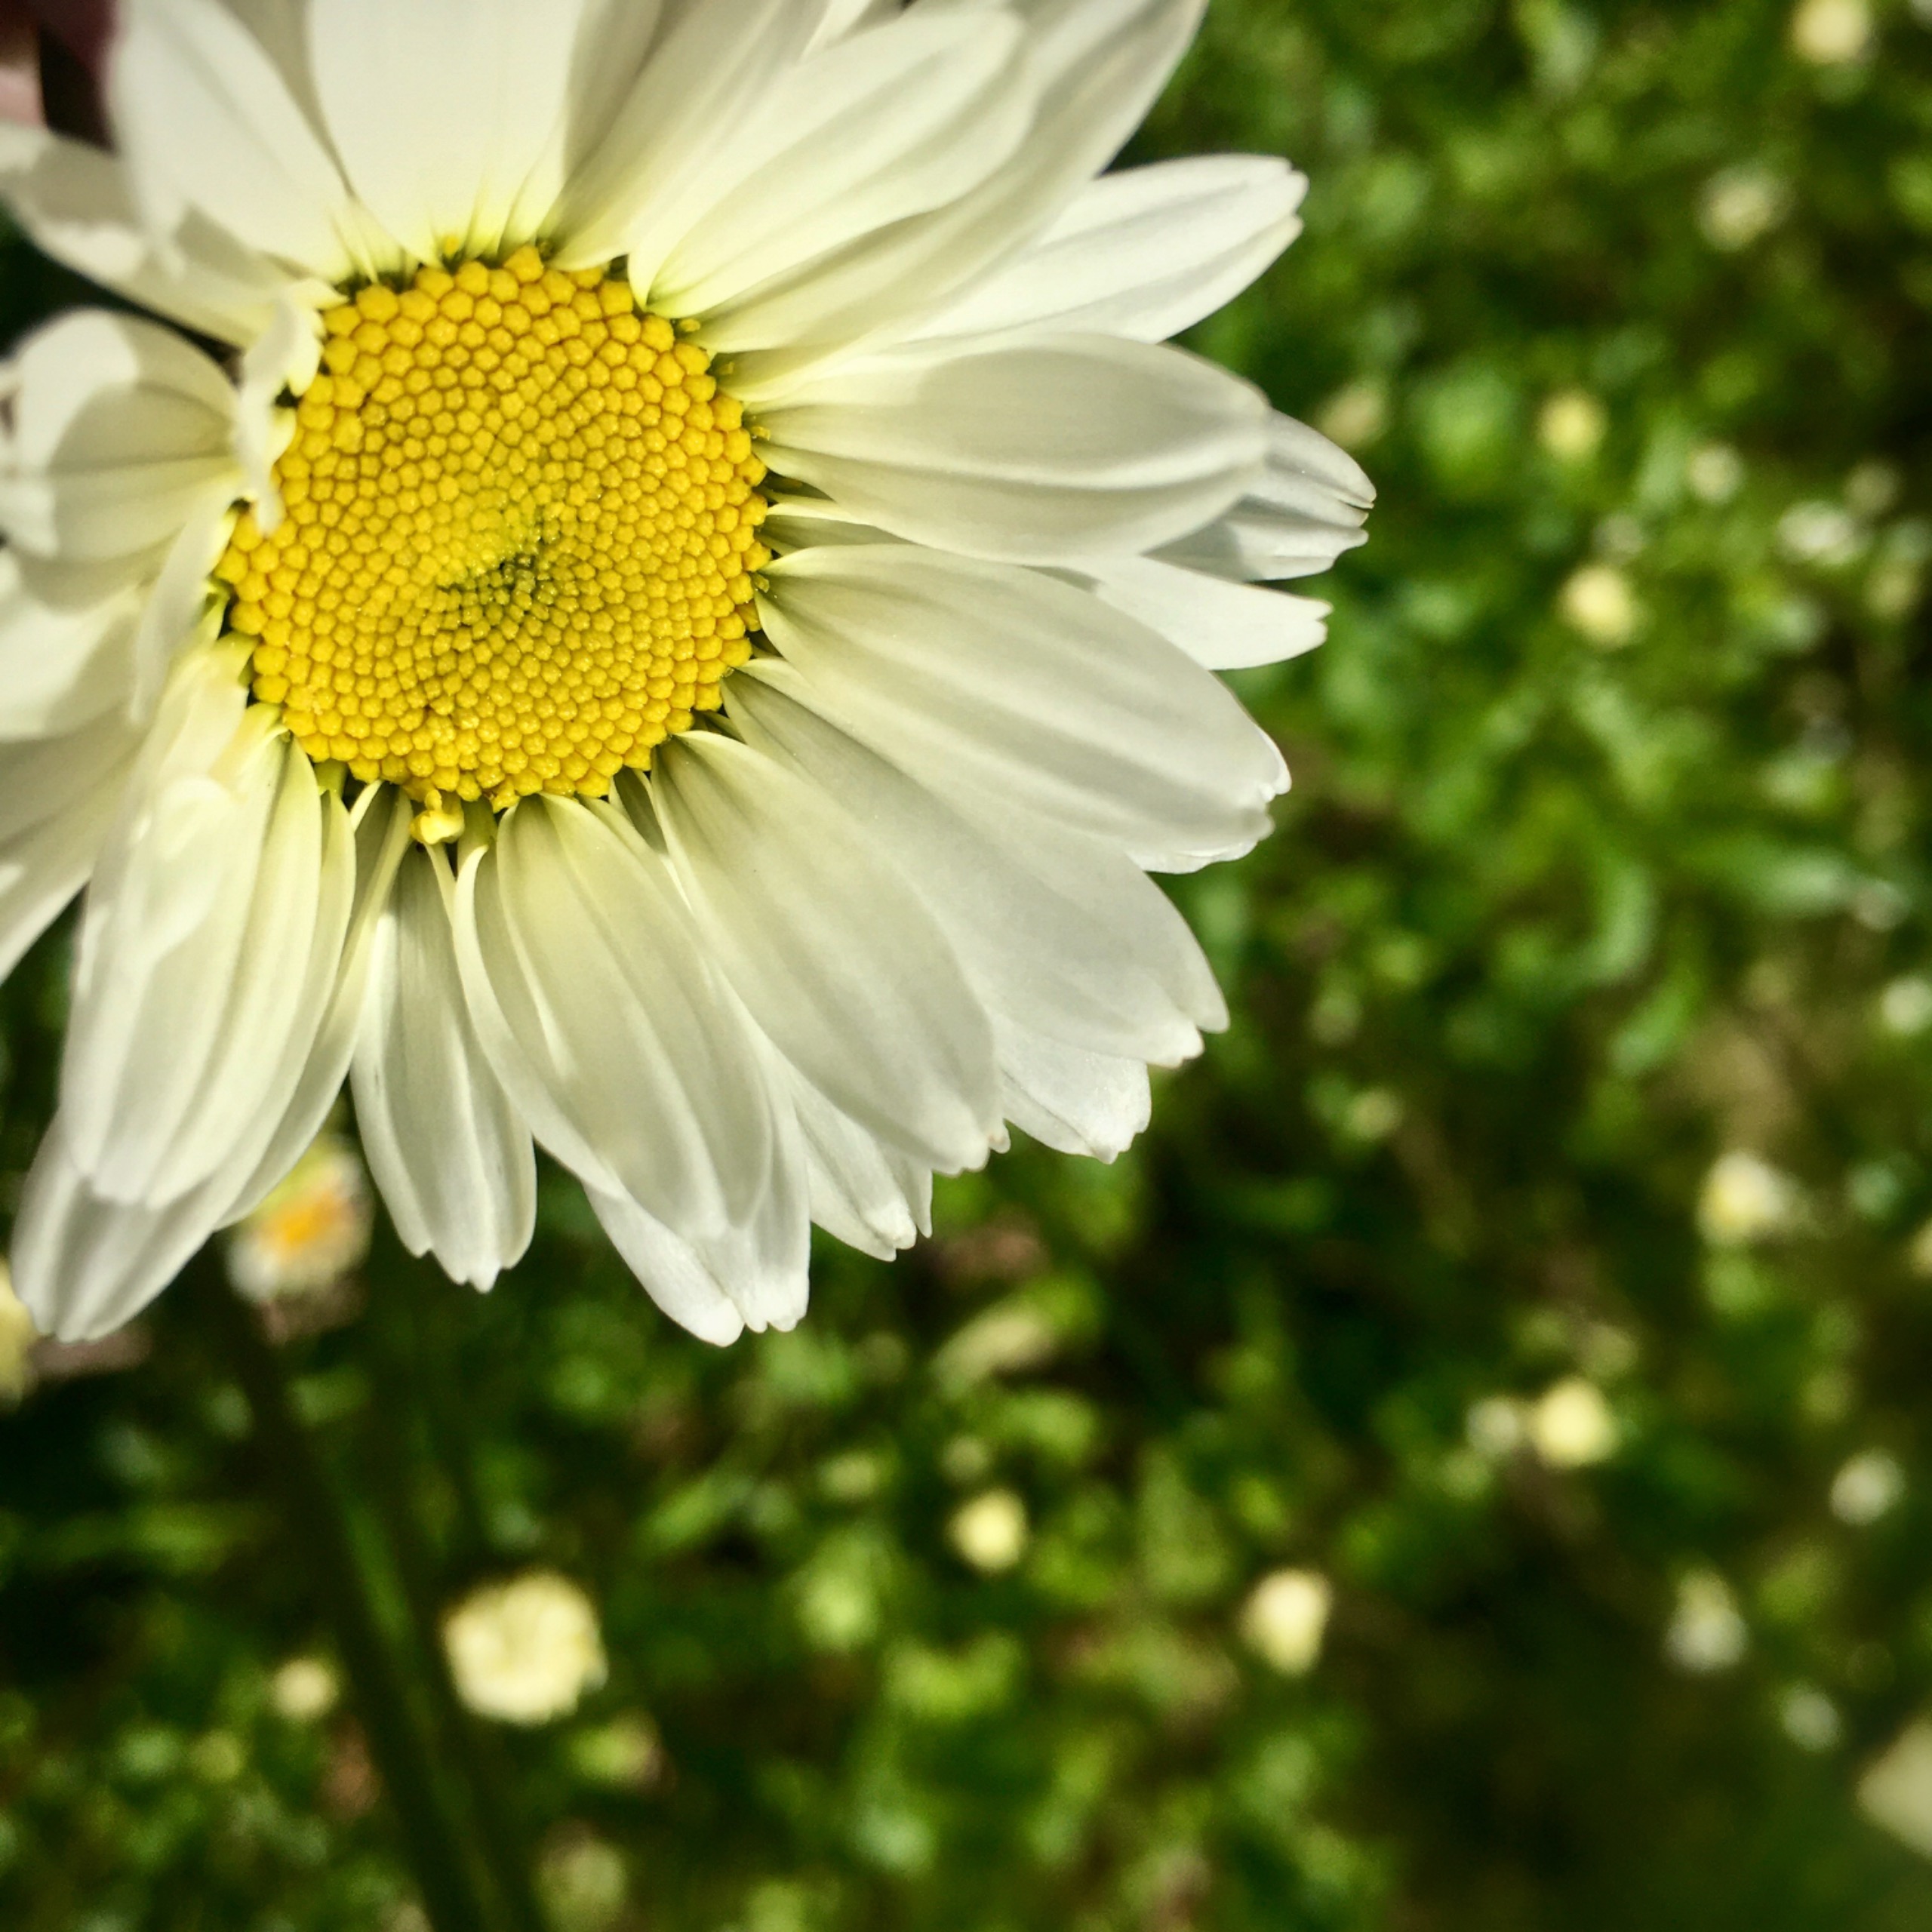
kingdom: Plantae
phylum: Tracheophyta
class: Magnoliopsida
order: Asterales
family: Asteraceae
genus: Leucanthemum
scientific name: Leucanthemum vulgare
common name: Hvid okseøje
